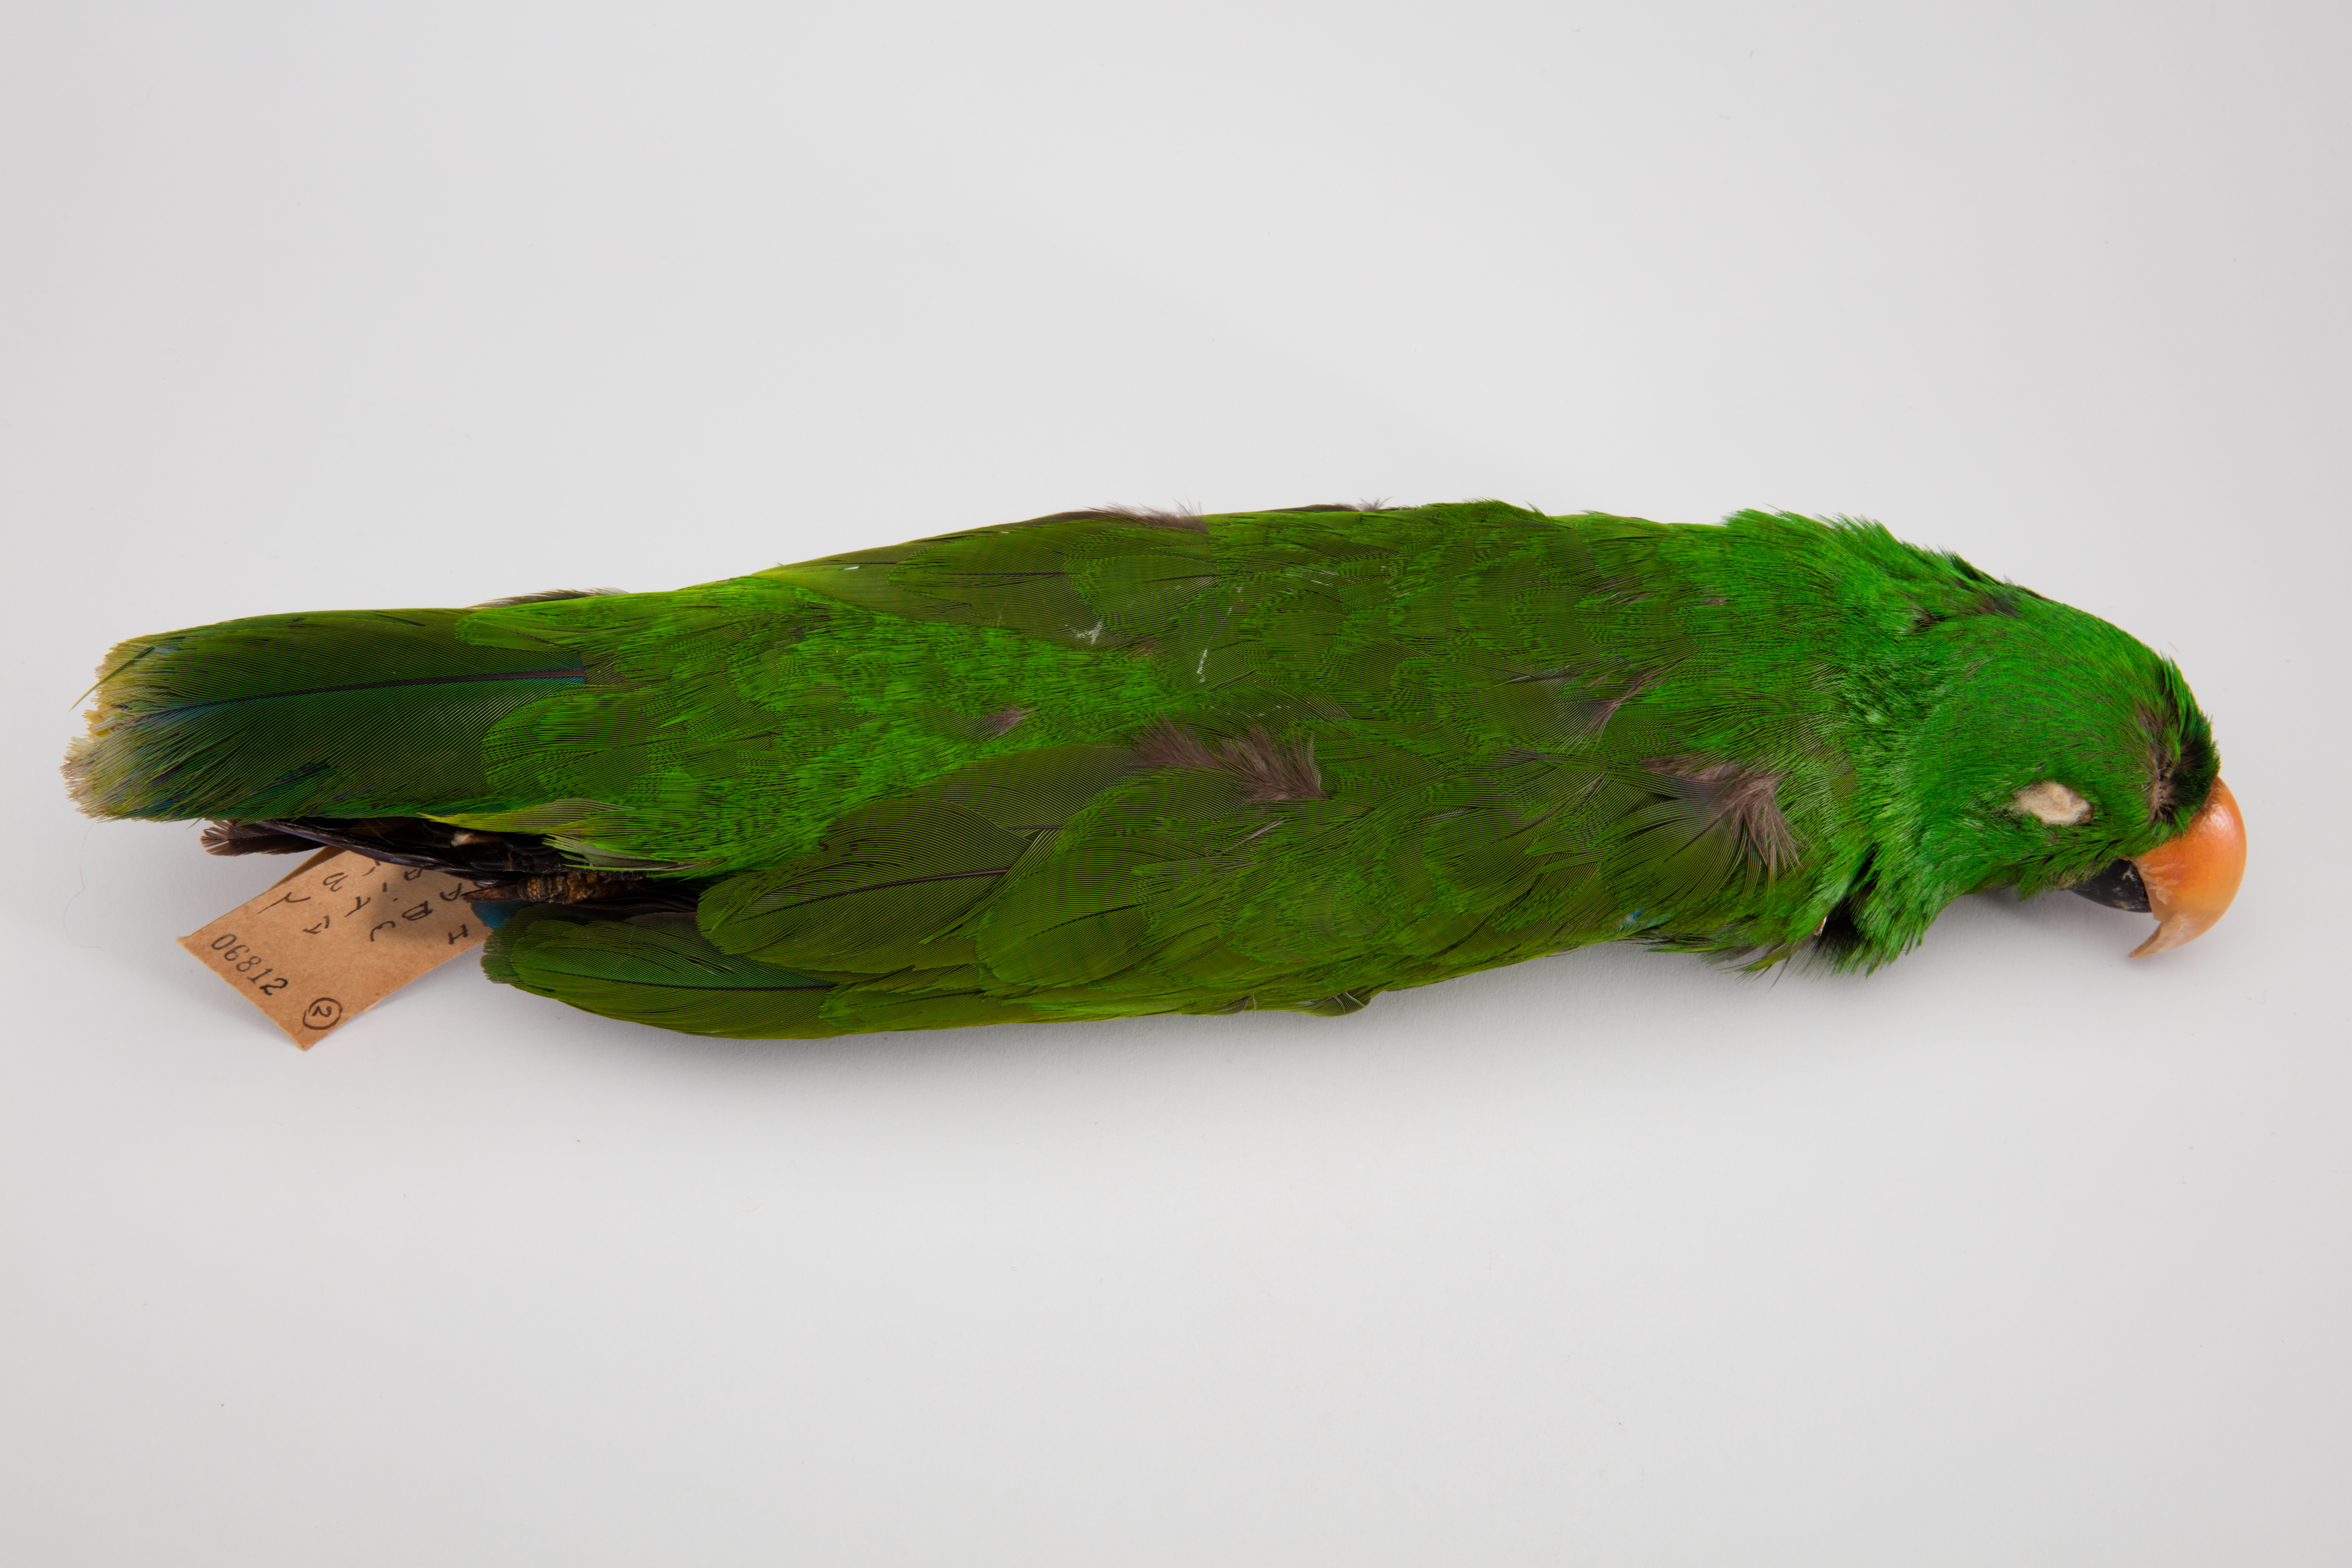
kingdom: Animalia
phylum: Chordata
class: Aves
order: Psittaciformes
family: Psittacidae
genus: Eclectus
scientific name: Eclectus roratus
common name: Eclectus parrot
